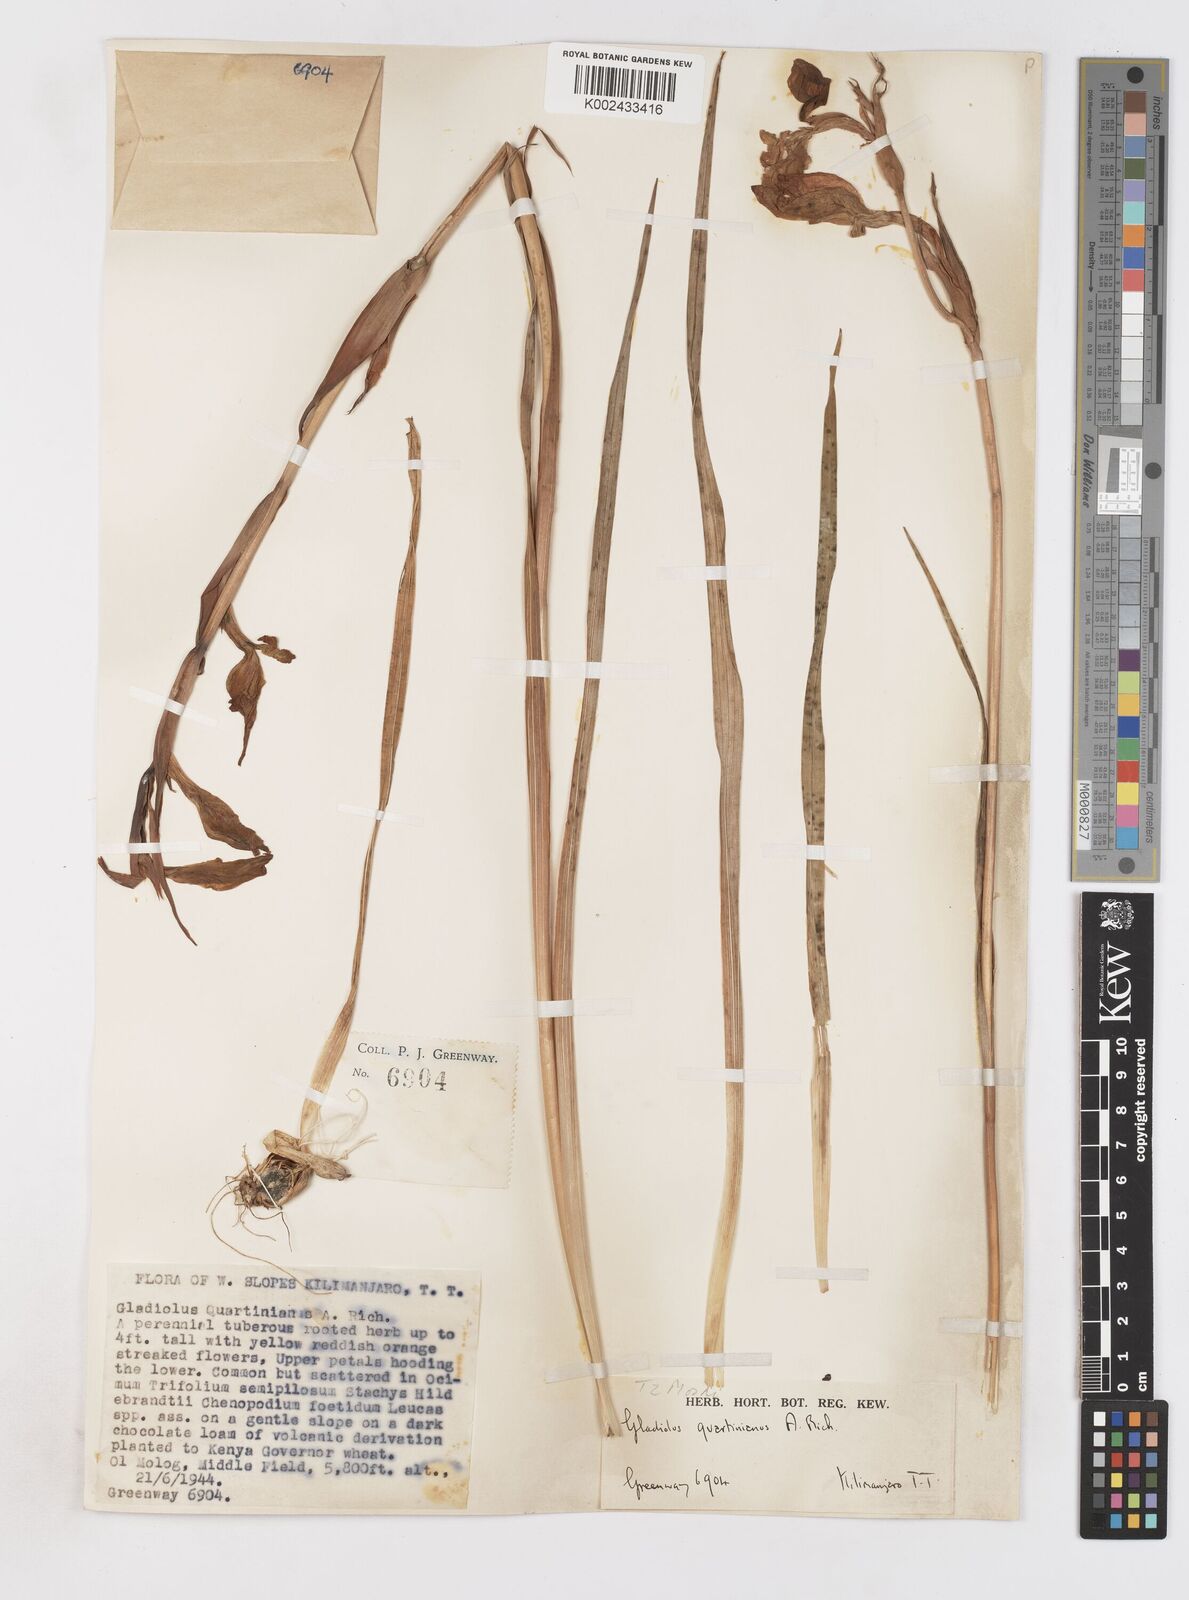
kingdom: Plantae
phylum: Tracheophyta
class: Liliopsida
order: Asparagales
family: Iridaceae
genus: Gladiolus
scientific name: Gladiolus dalenii
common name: Cornflag
